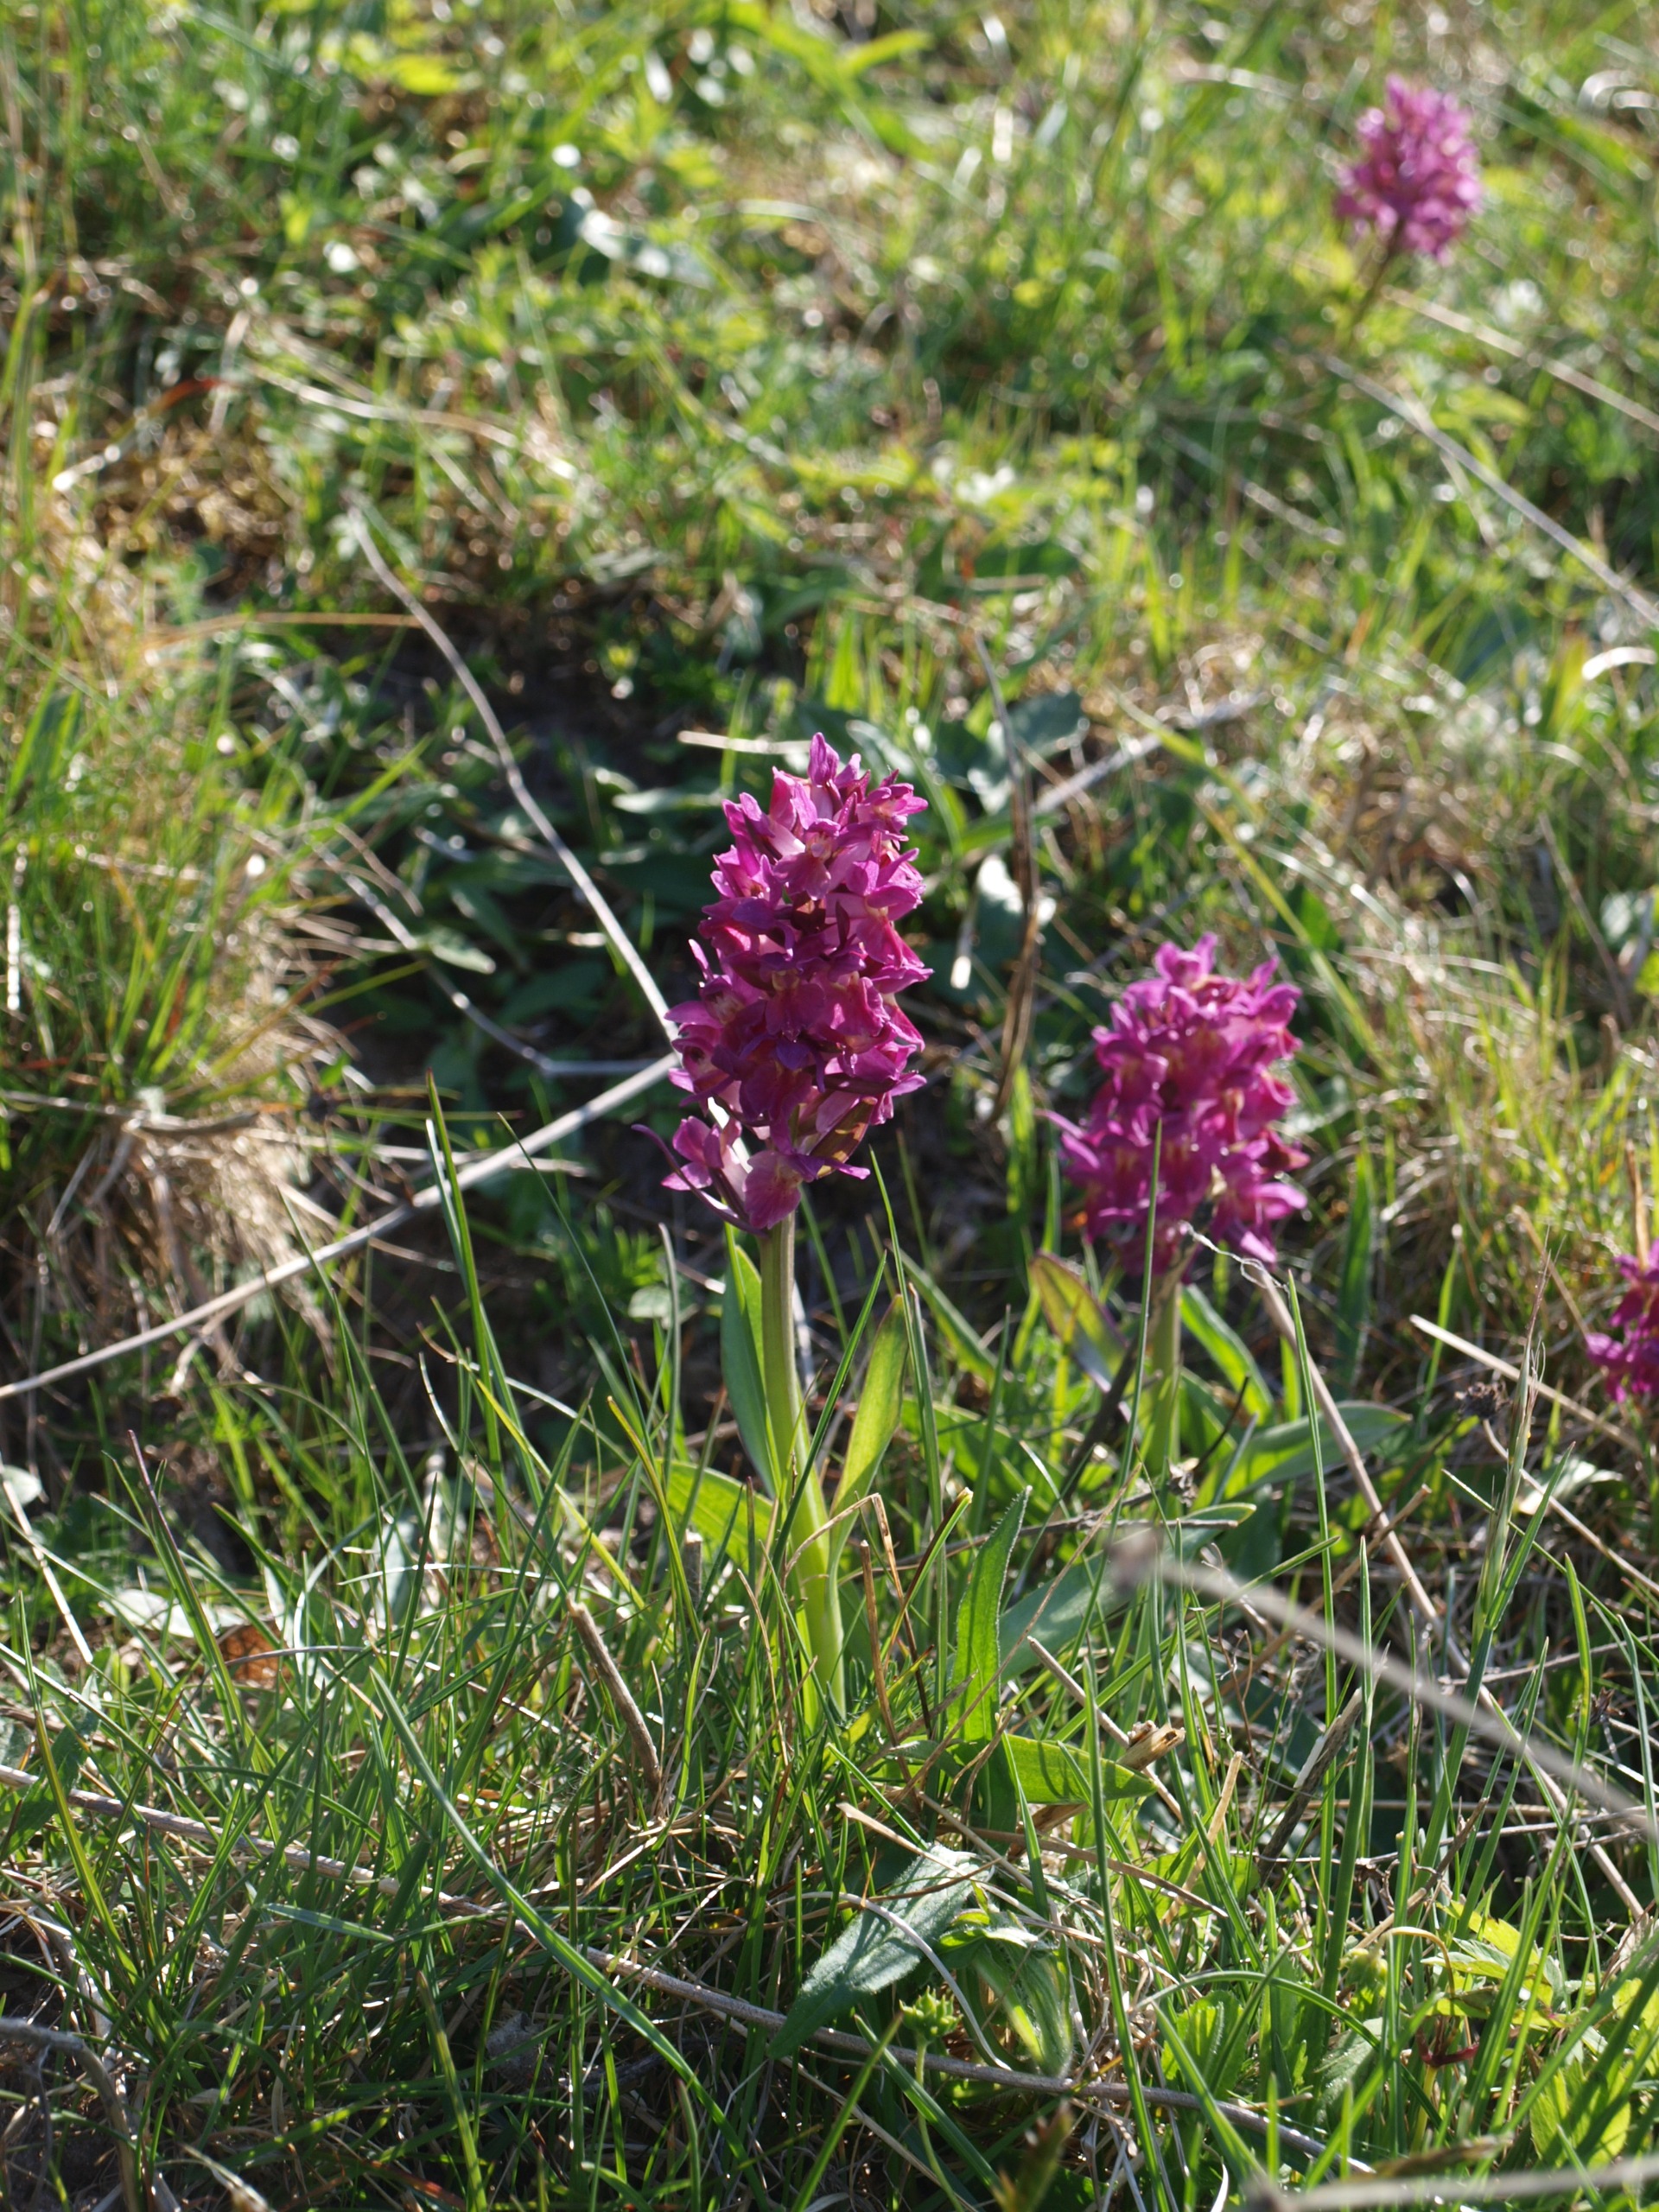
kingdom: Plantae
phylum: Tracheophyta
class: Liliopsida
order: Asparagales
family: Orchidaceae
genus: Dactylorhiza
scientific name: Dactylorhiza sambucina
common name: Hylde-gøgeurt
